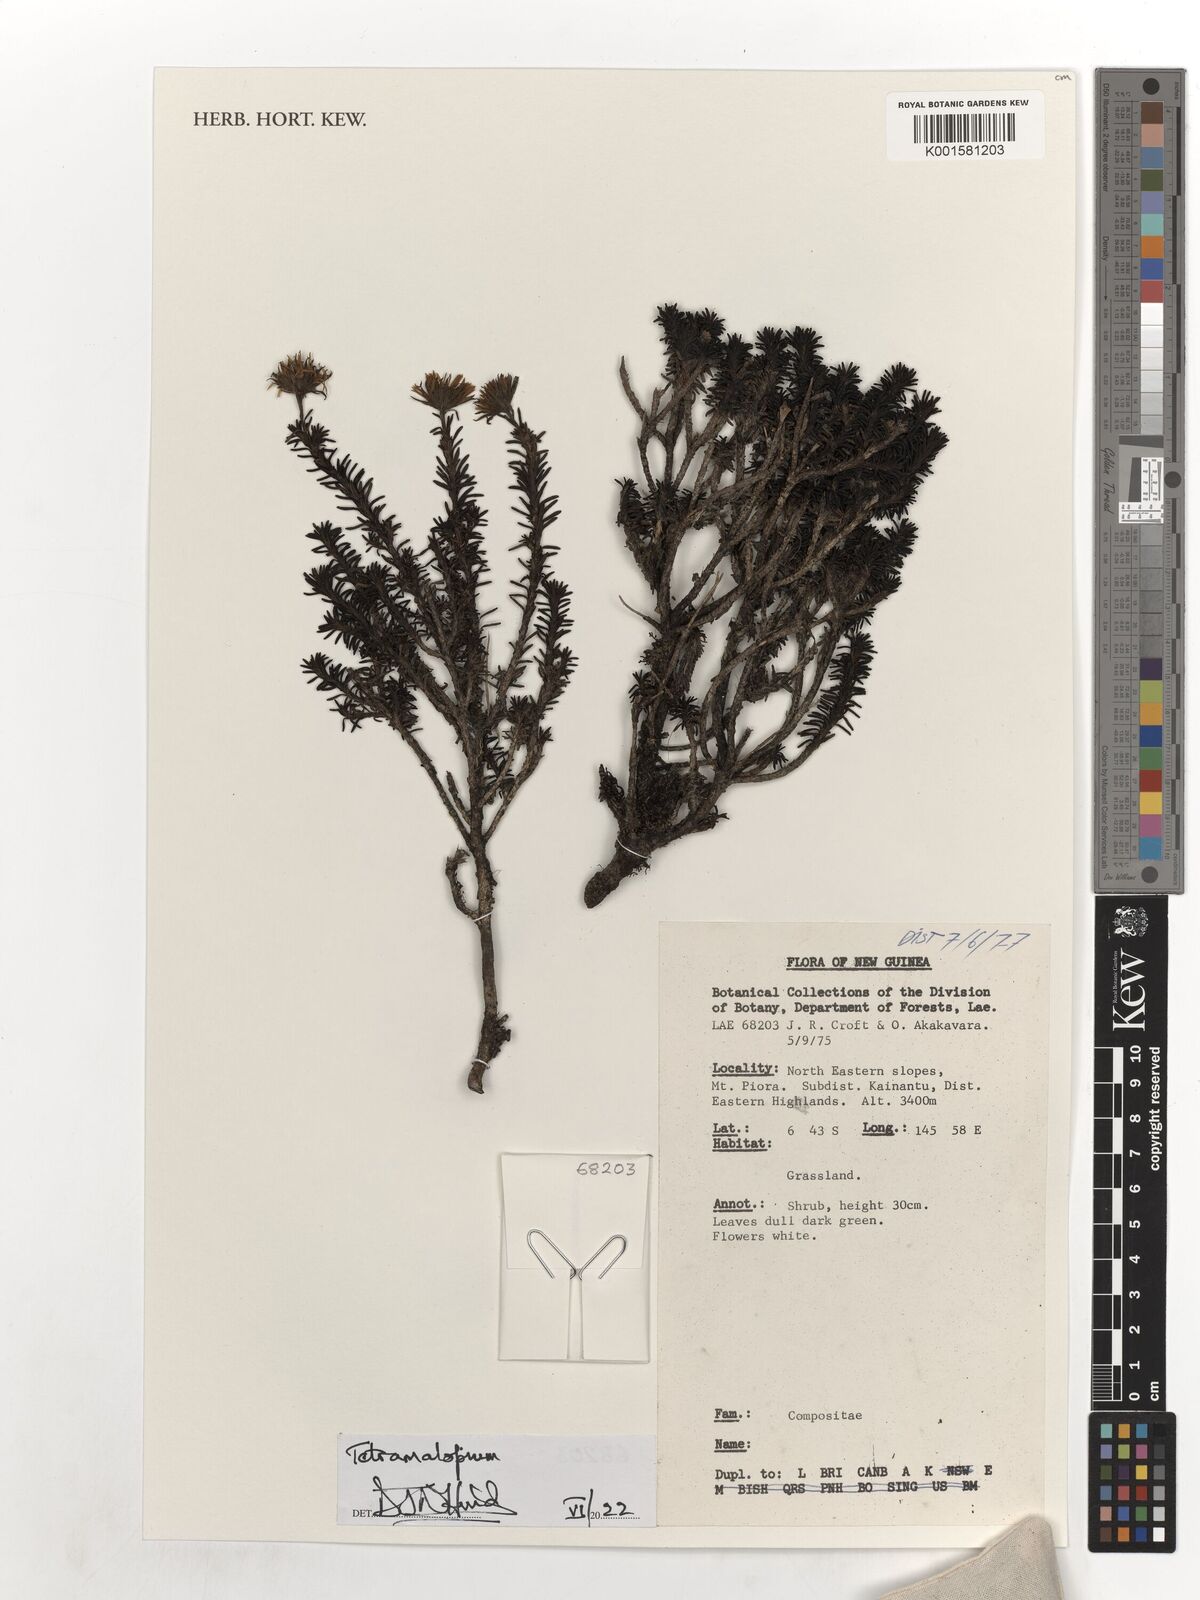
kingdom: Plantae
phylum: Tracheophyta
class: Magnoliopsida
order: Asterales
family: Asteraceae
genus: Tetramolopium
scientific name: Tetramolopium
